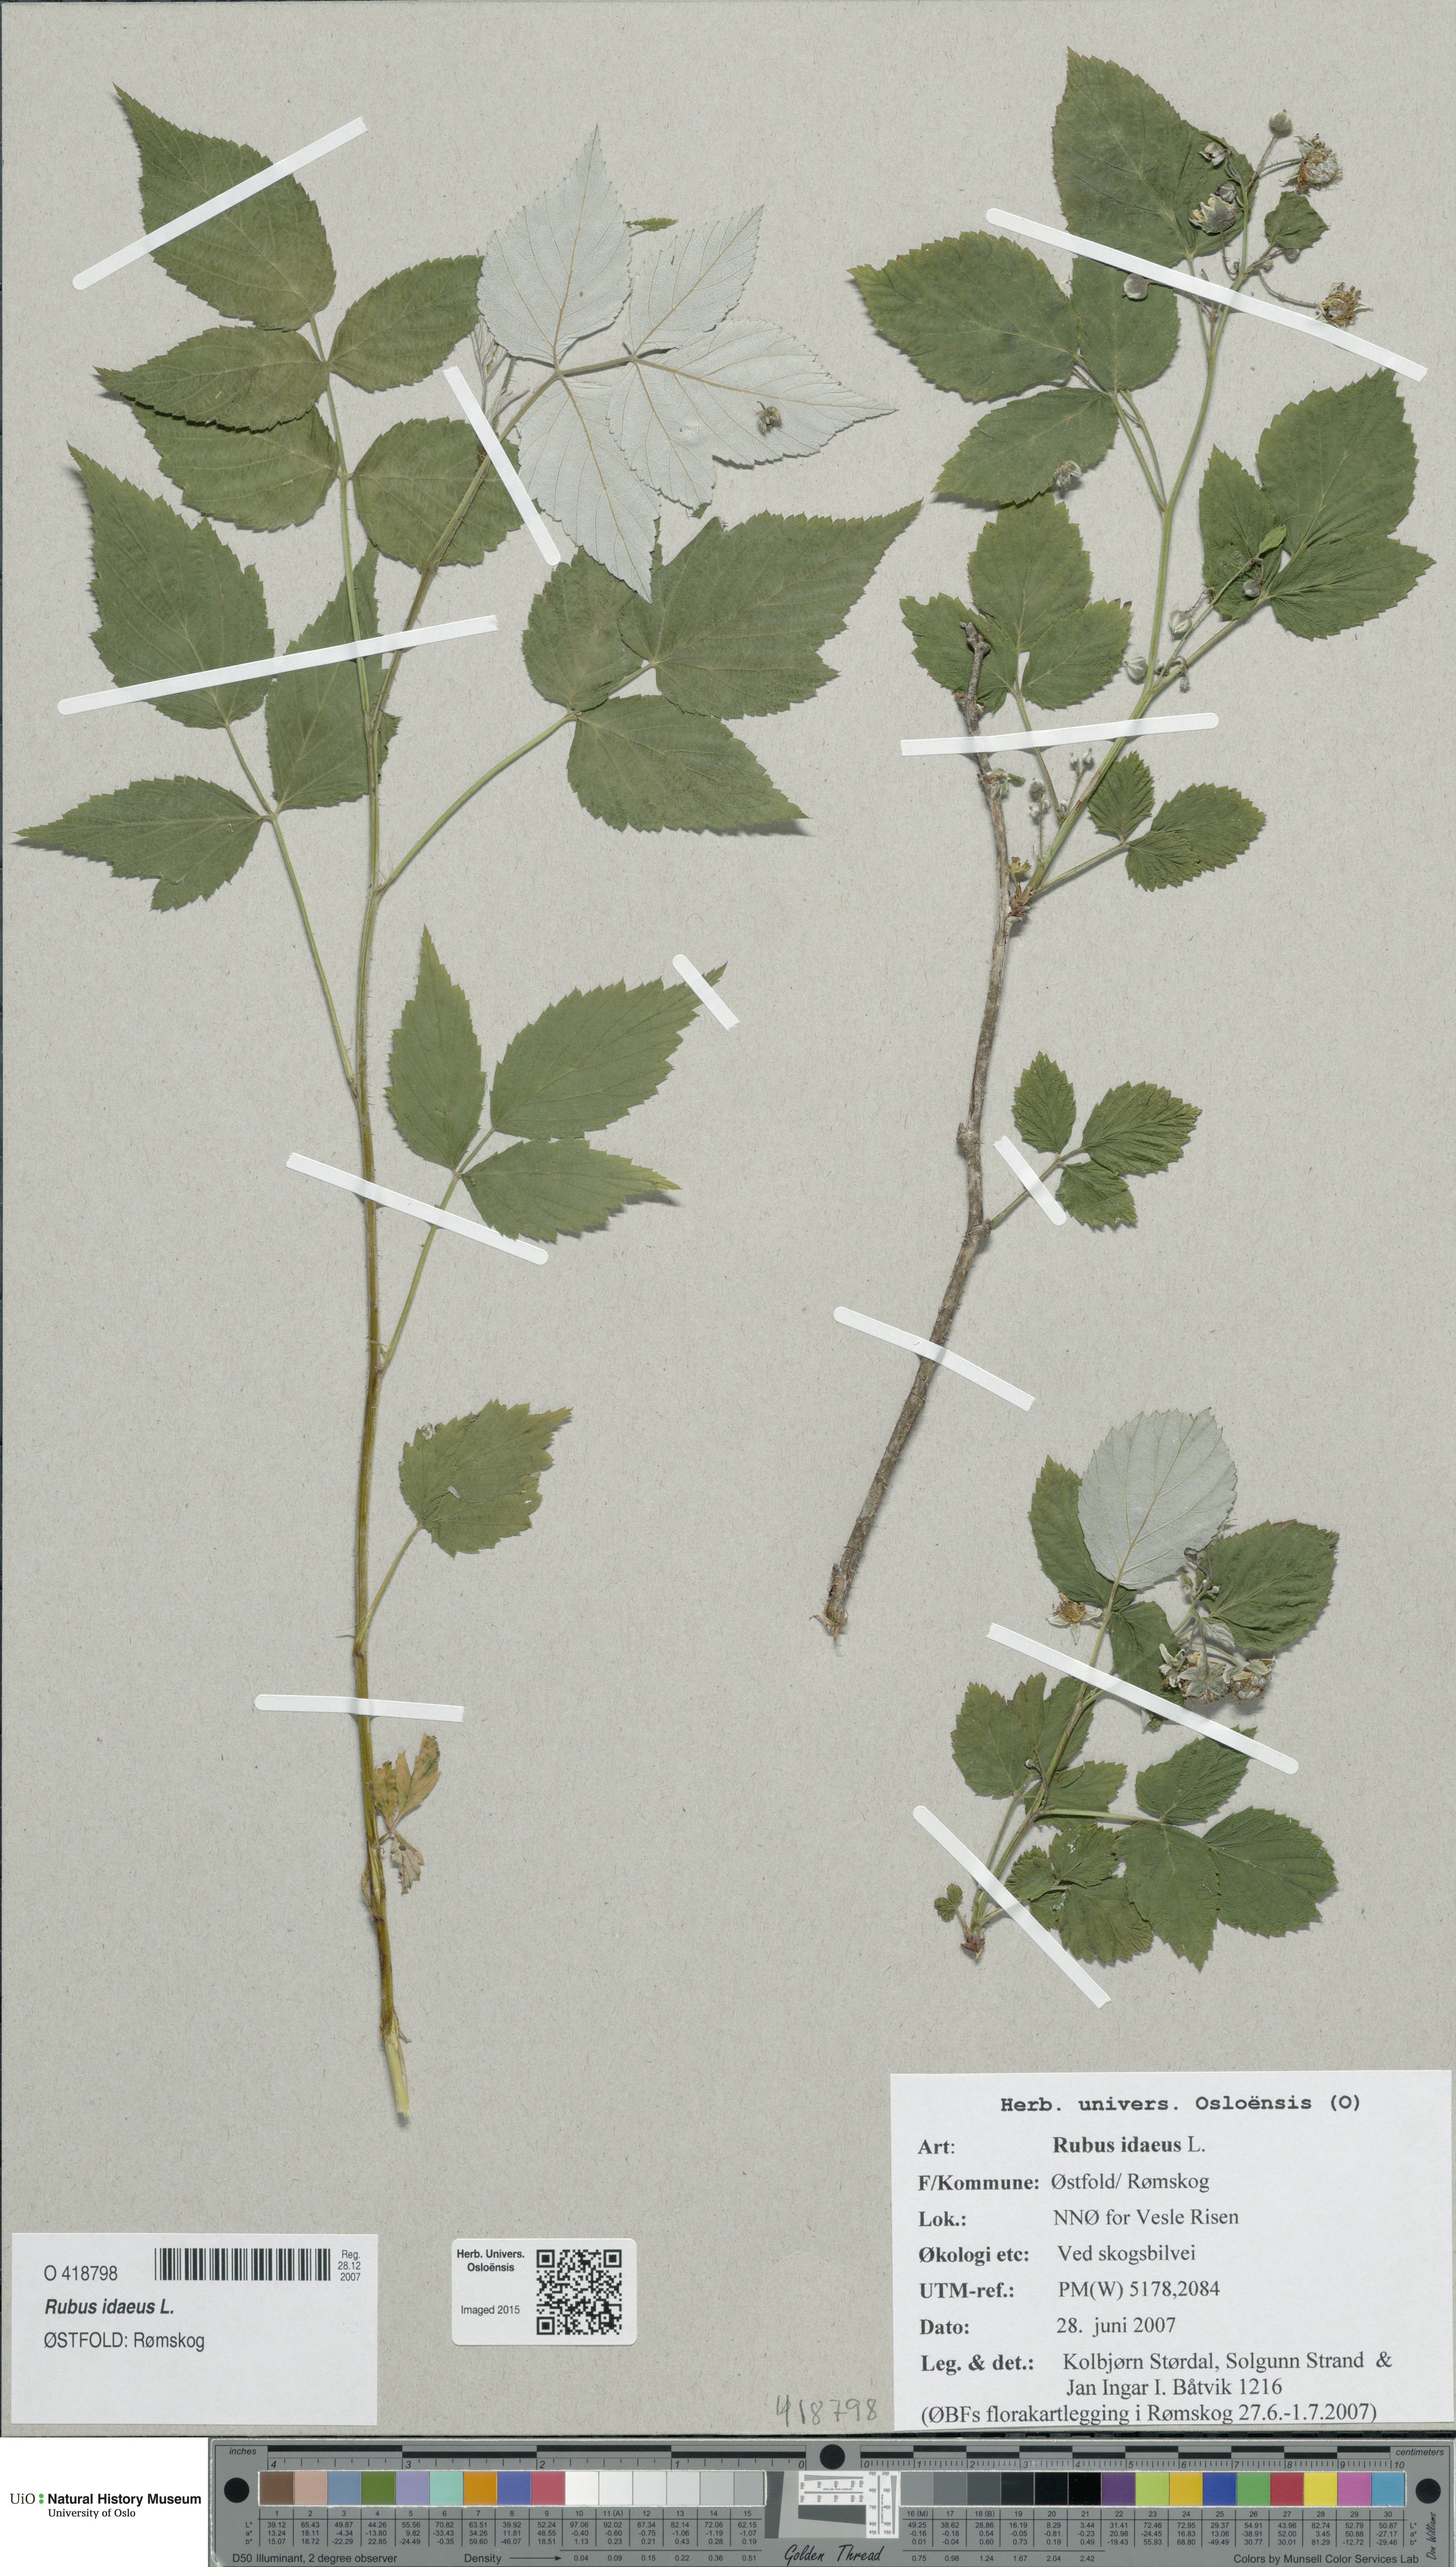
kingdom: Plantae
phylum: Tracheophyta
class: Magnoliopsida
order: Rosales
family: Rosaceae
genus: Rubus
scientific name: Rubus idaeus
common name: Raspberry
